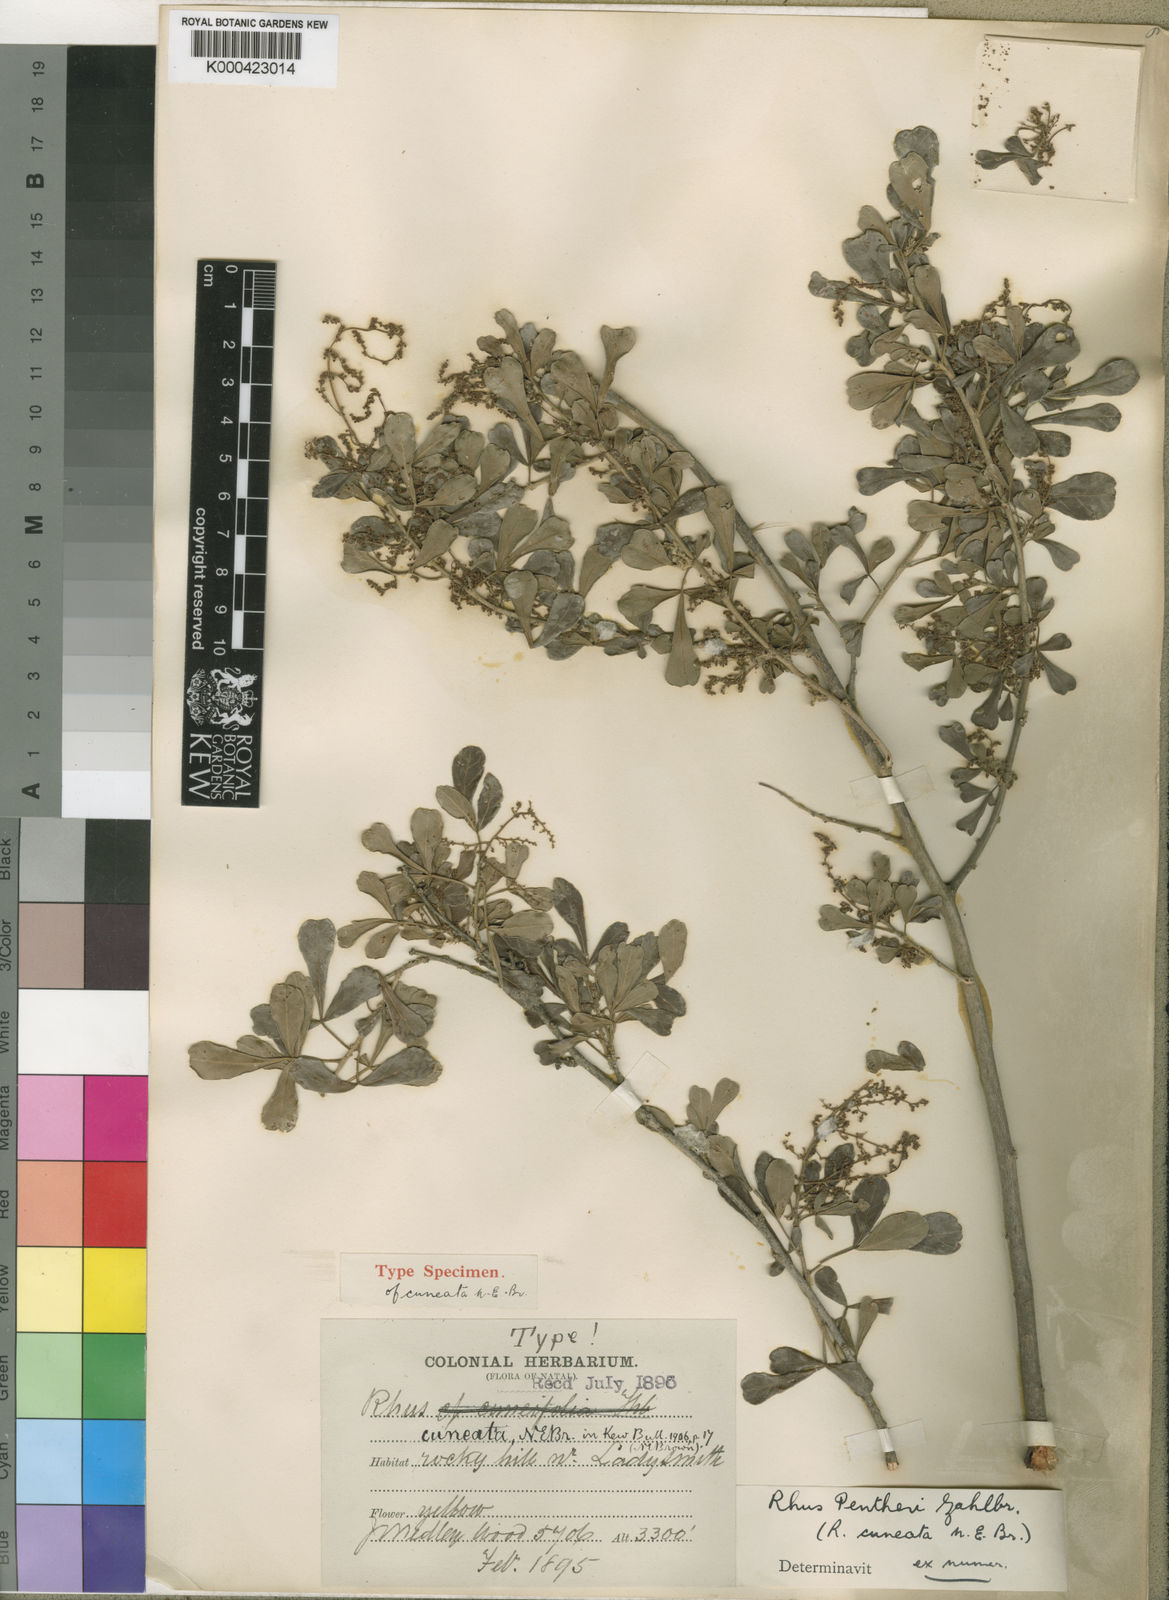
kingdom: Plantae
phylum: Tracheophyta
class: Magnoliopsida
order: Sapindales
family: Anacardiaceae
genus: Searsia
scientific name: Searsia pentheri
